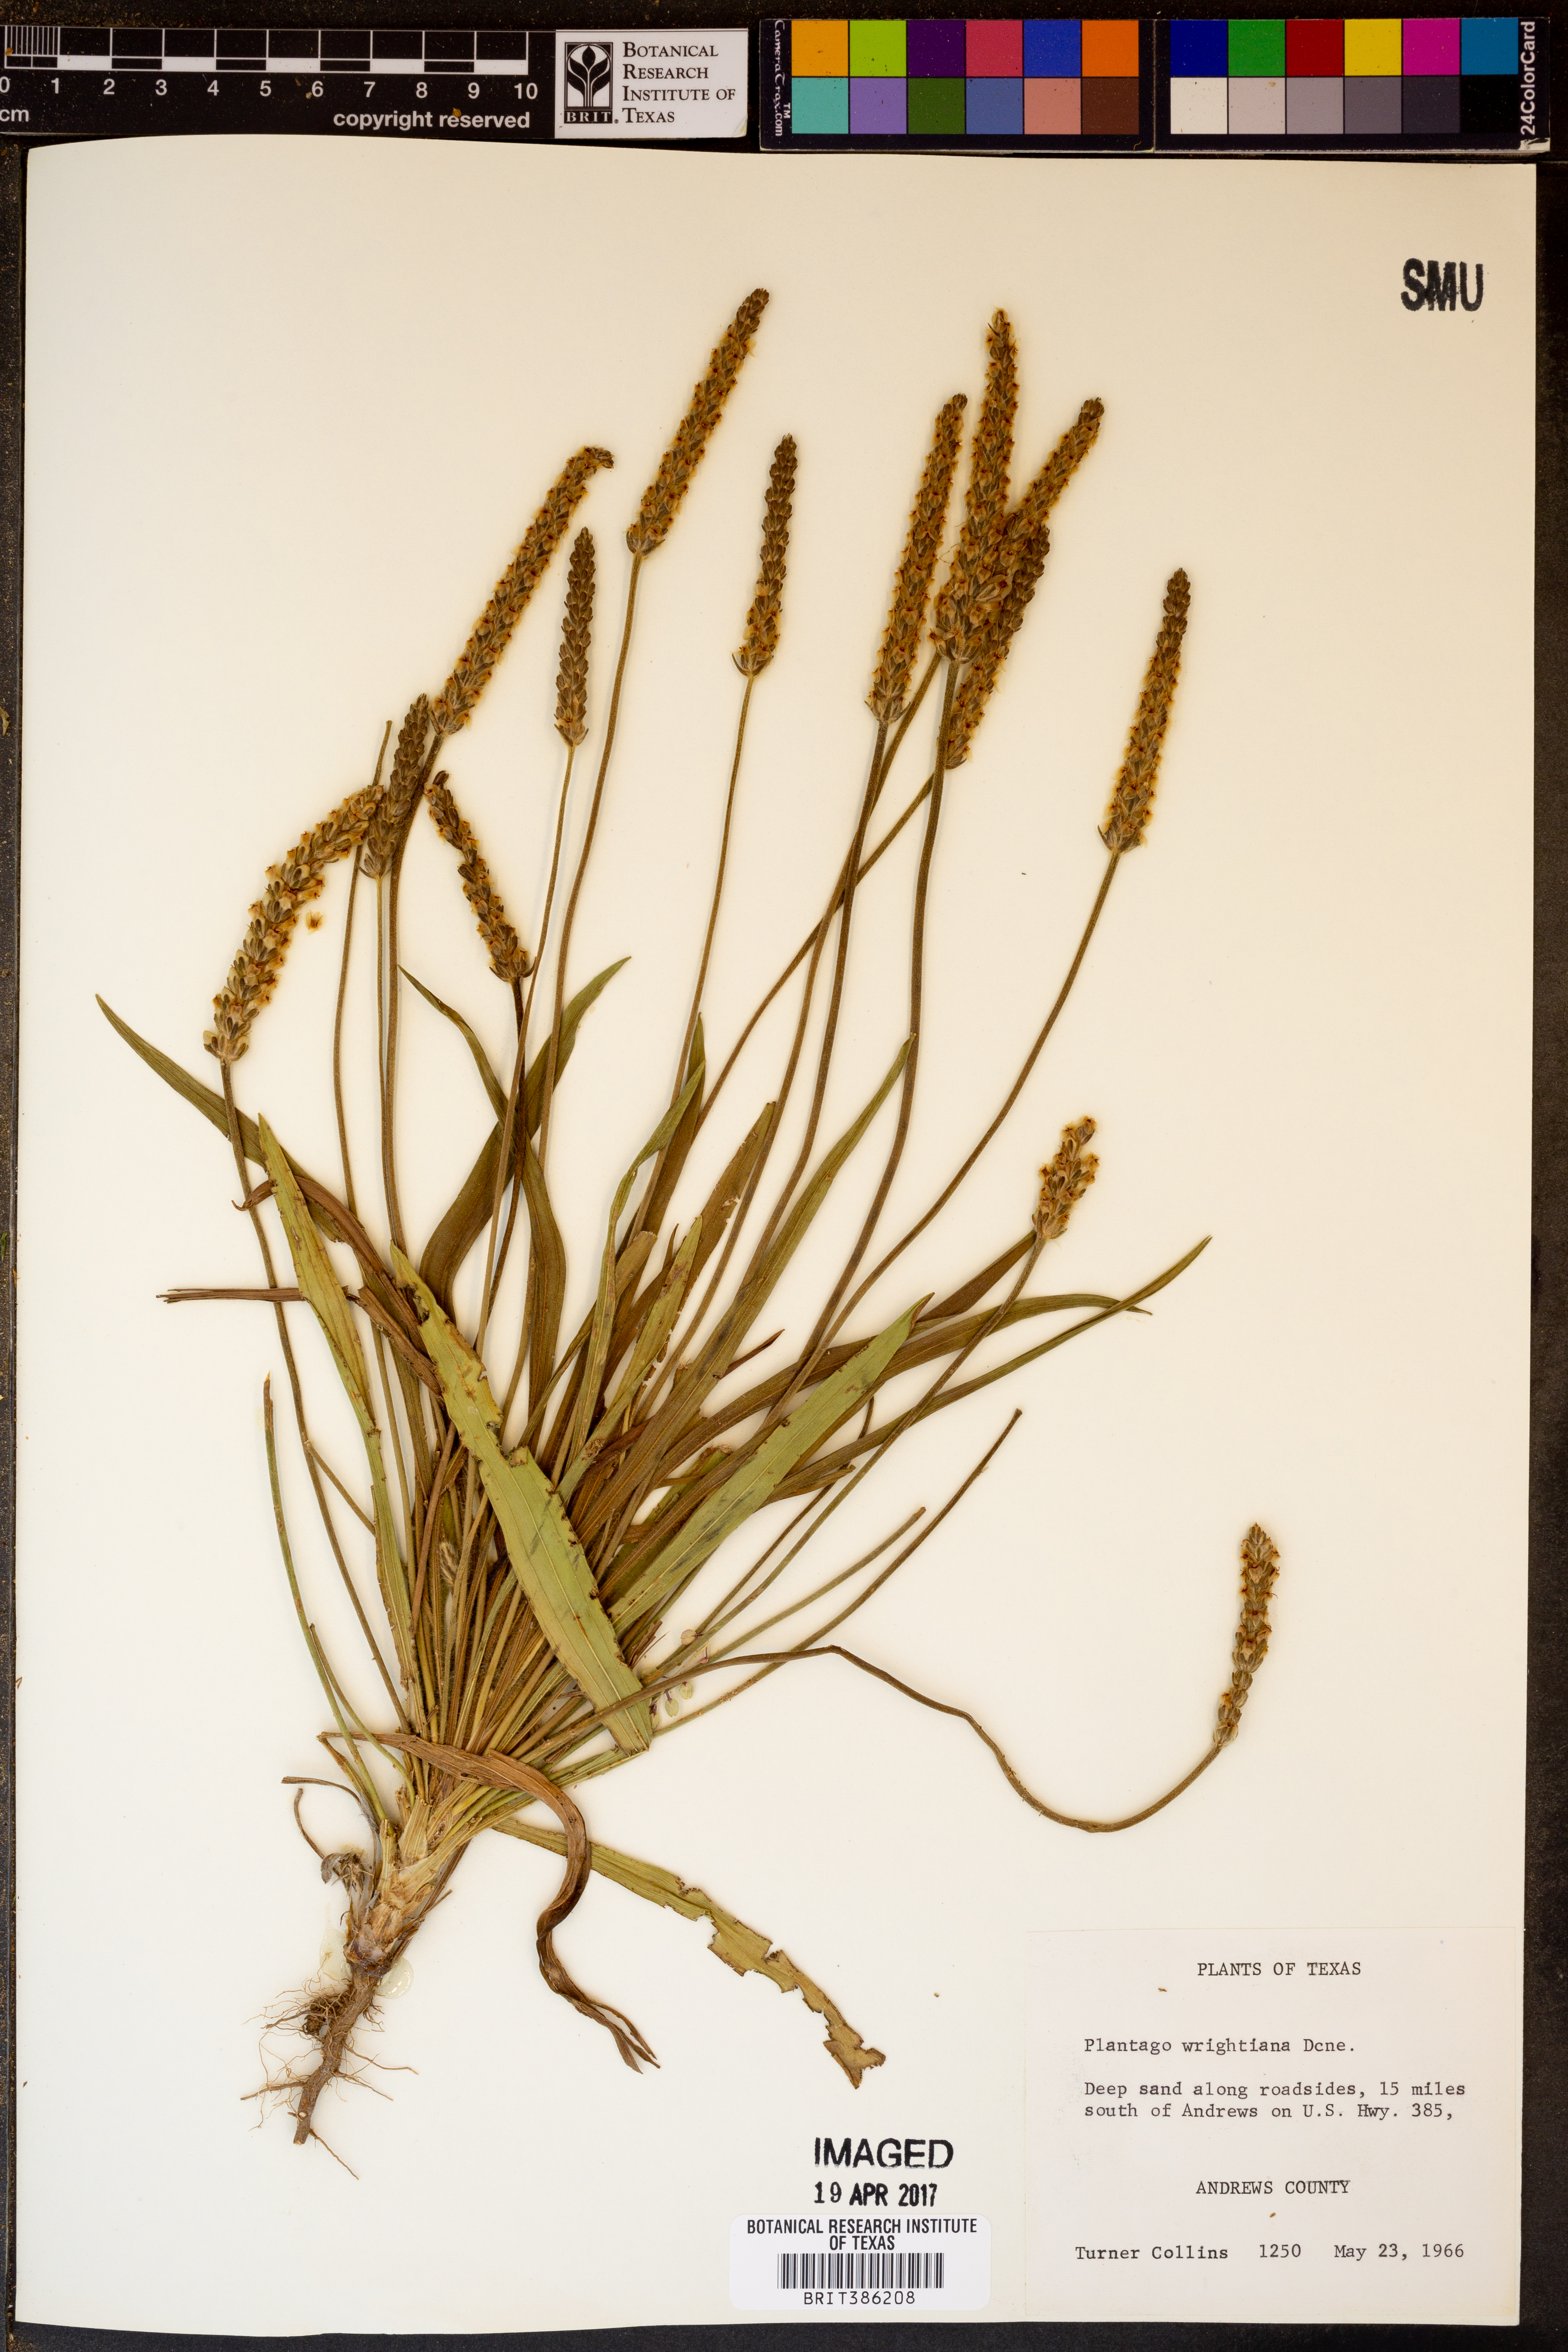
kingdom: Plantae
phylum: Tracheophyta
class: Magnoliopsida
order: Lamiales
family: Plantaginaceae
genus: Plantago
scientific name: Plantago wrightiana
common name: Wright's plantain
